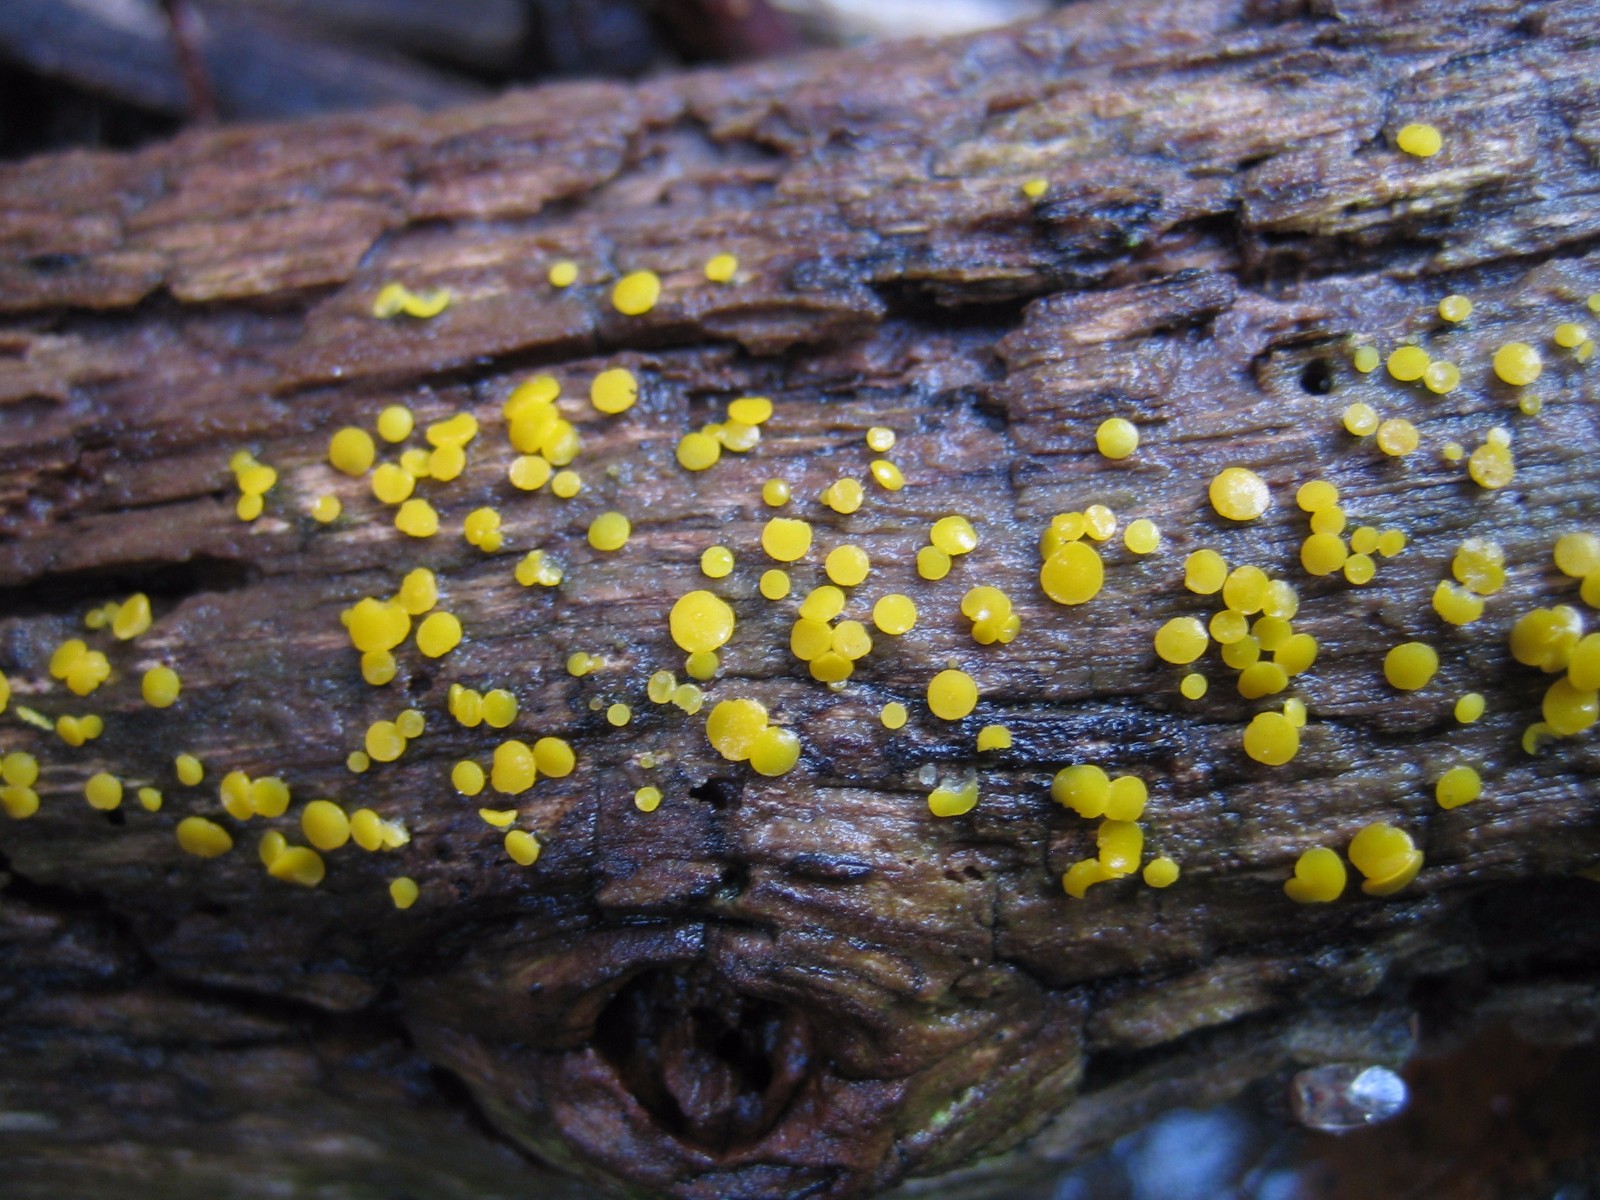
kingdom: Fungi
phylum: Ascomycota
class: Leotiomycetes
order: Helotiales
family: Pezizellaceae
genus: Calycina
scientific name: Calycina citrina
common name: almindelig gulskive
